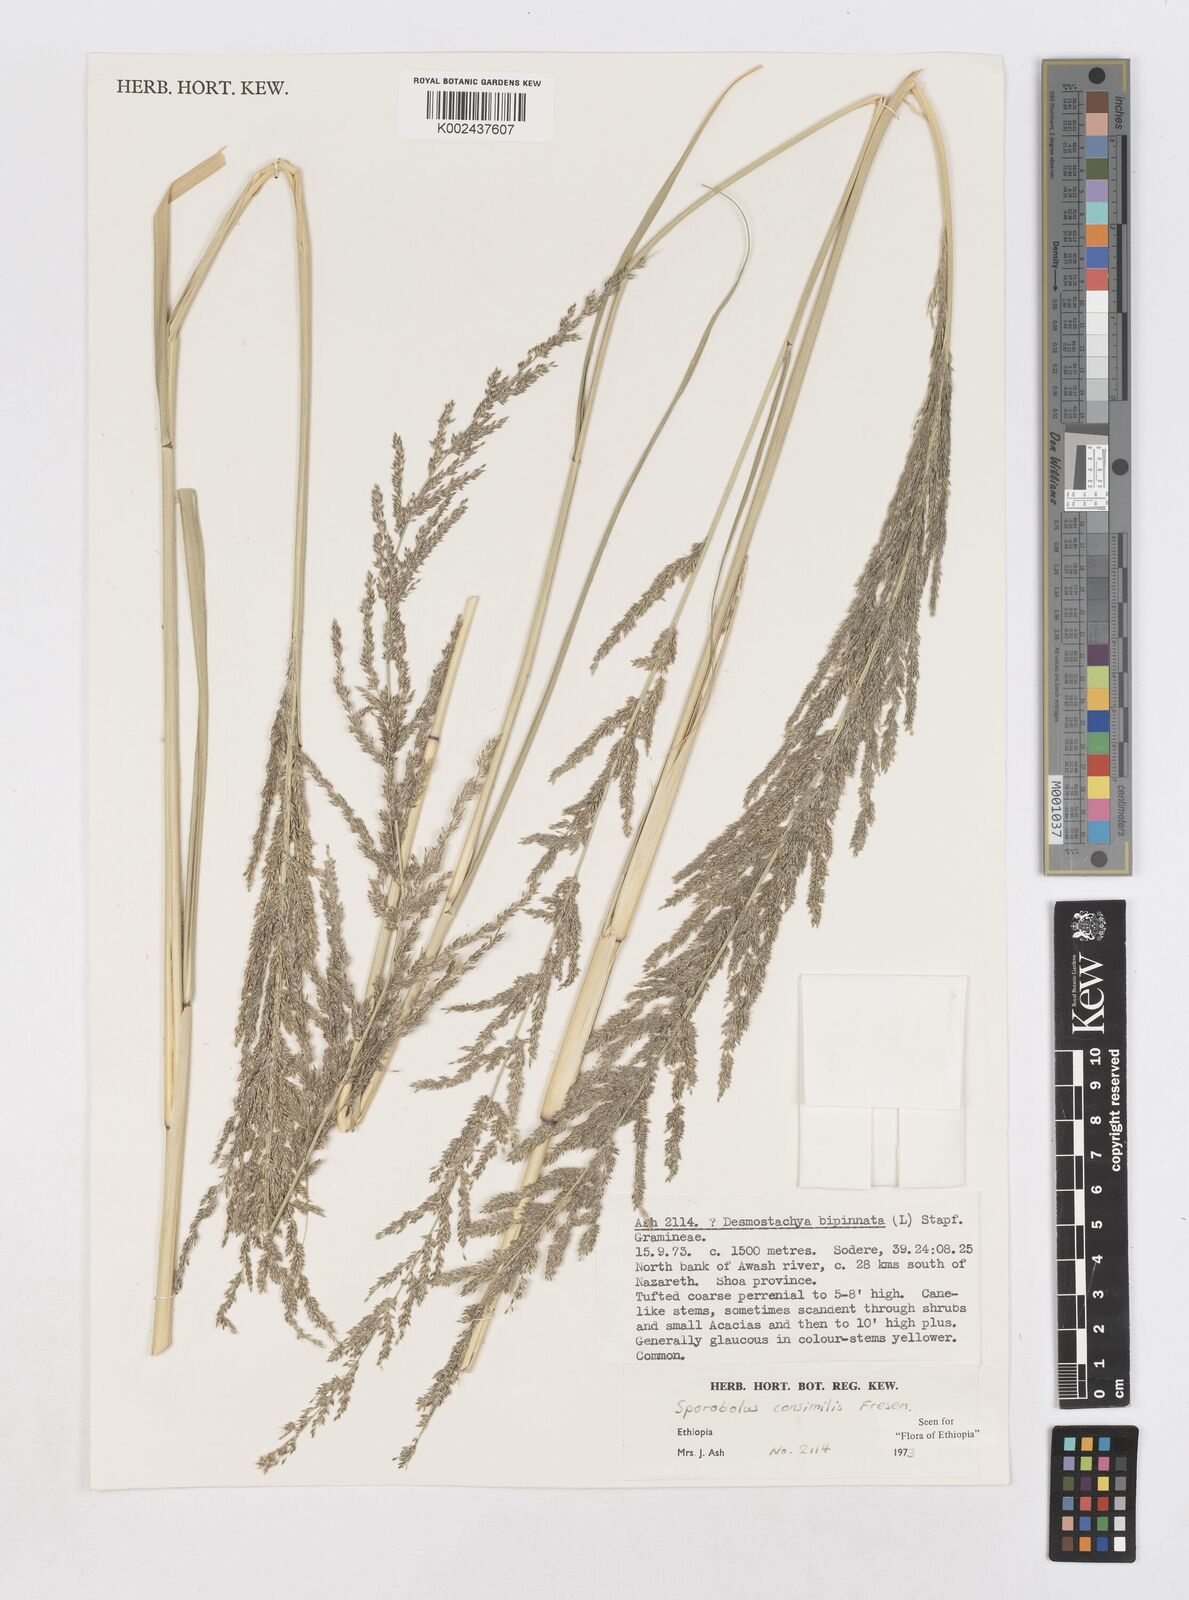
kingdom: Plantae
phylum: Tracheophyta
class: Liliopsida
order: Poales
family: Poaceae
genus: Sporobolus
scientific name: Sporobolus consimilis
